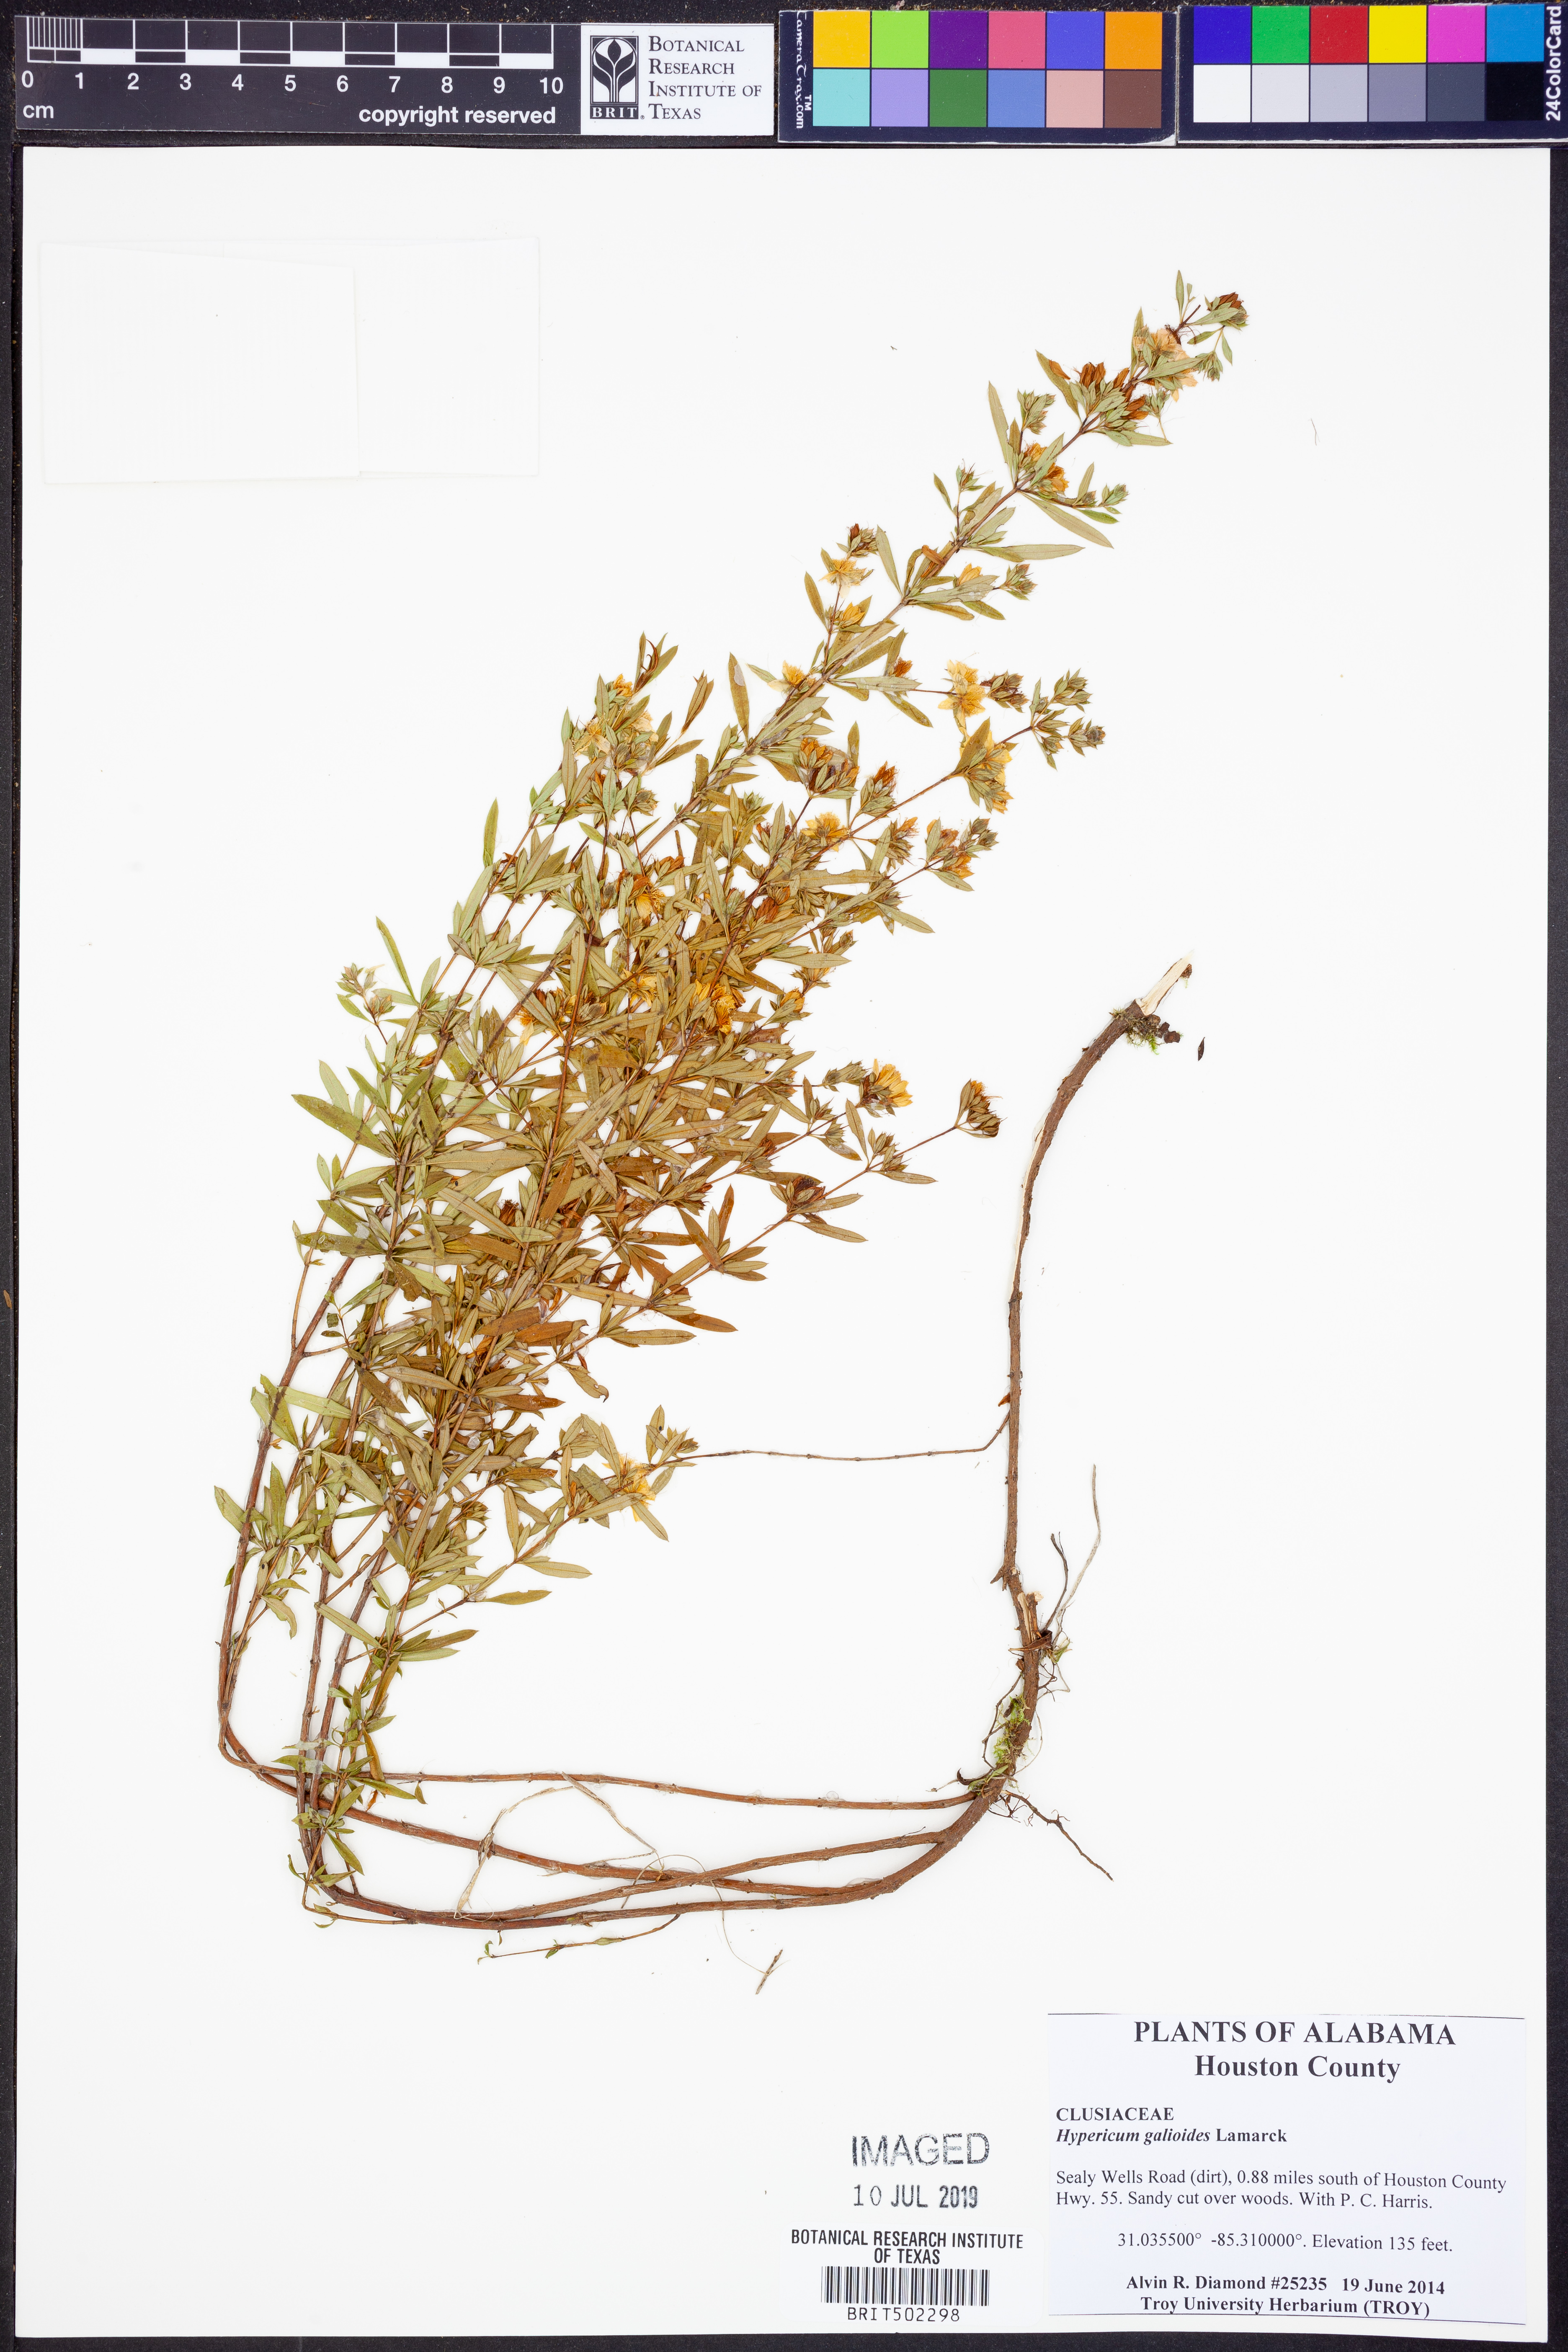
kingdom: Plantae
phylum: Tracheophyta
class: Magnoliopsida
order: Malpighiales
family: Hypericaceae
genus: Hypericum
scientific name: Hypericum galioides
